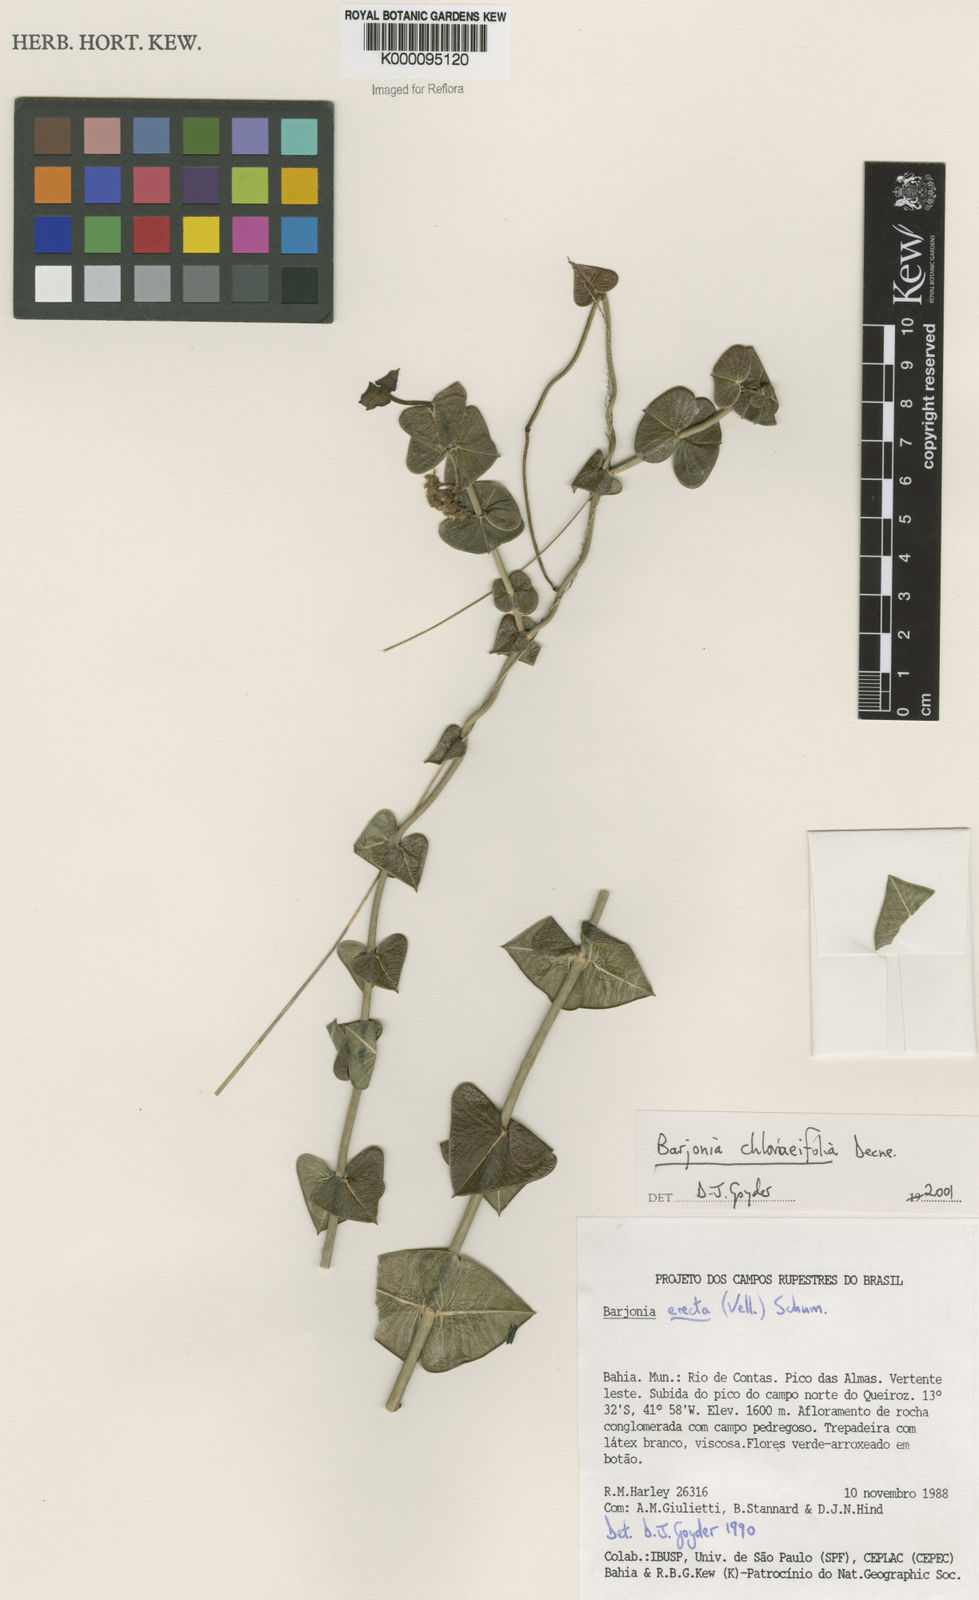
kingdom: Plantae
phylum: Tracheophyta
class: Magnoliopsida
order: Gentianales
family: Apocynaceae
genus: Barjonia
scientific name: Barjonia
